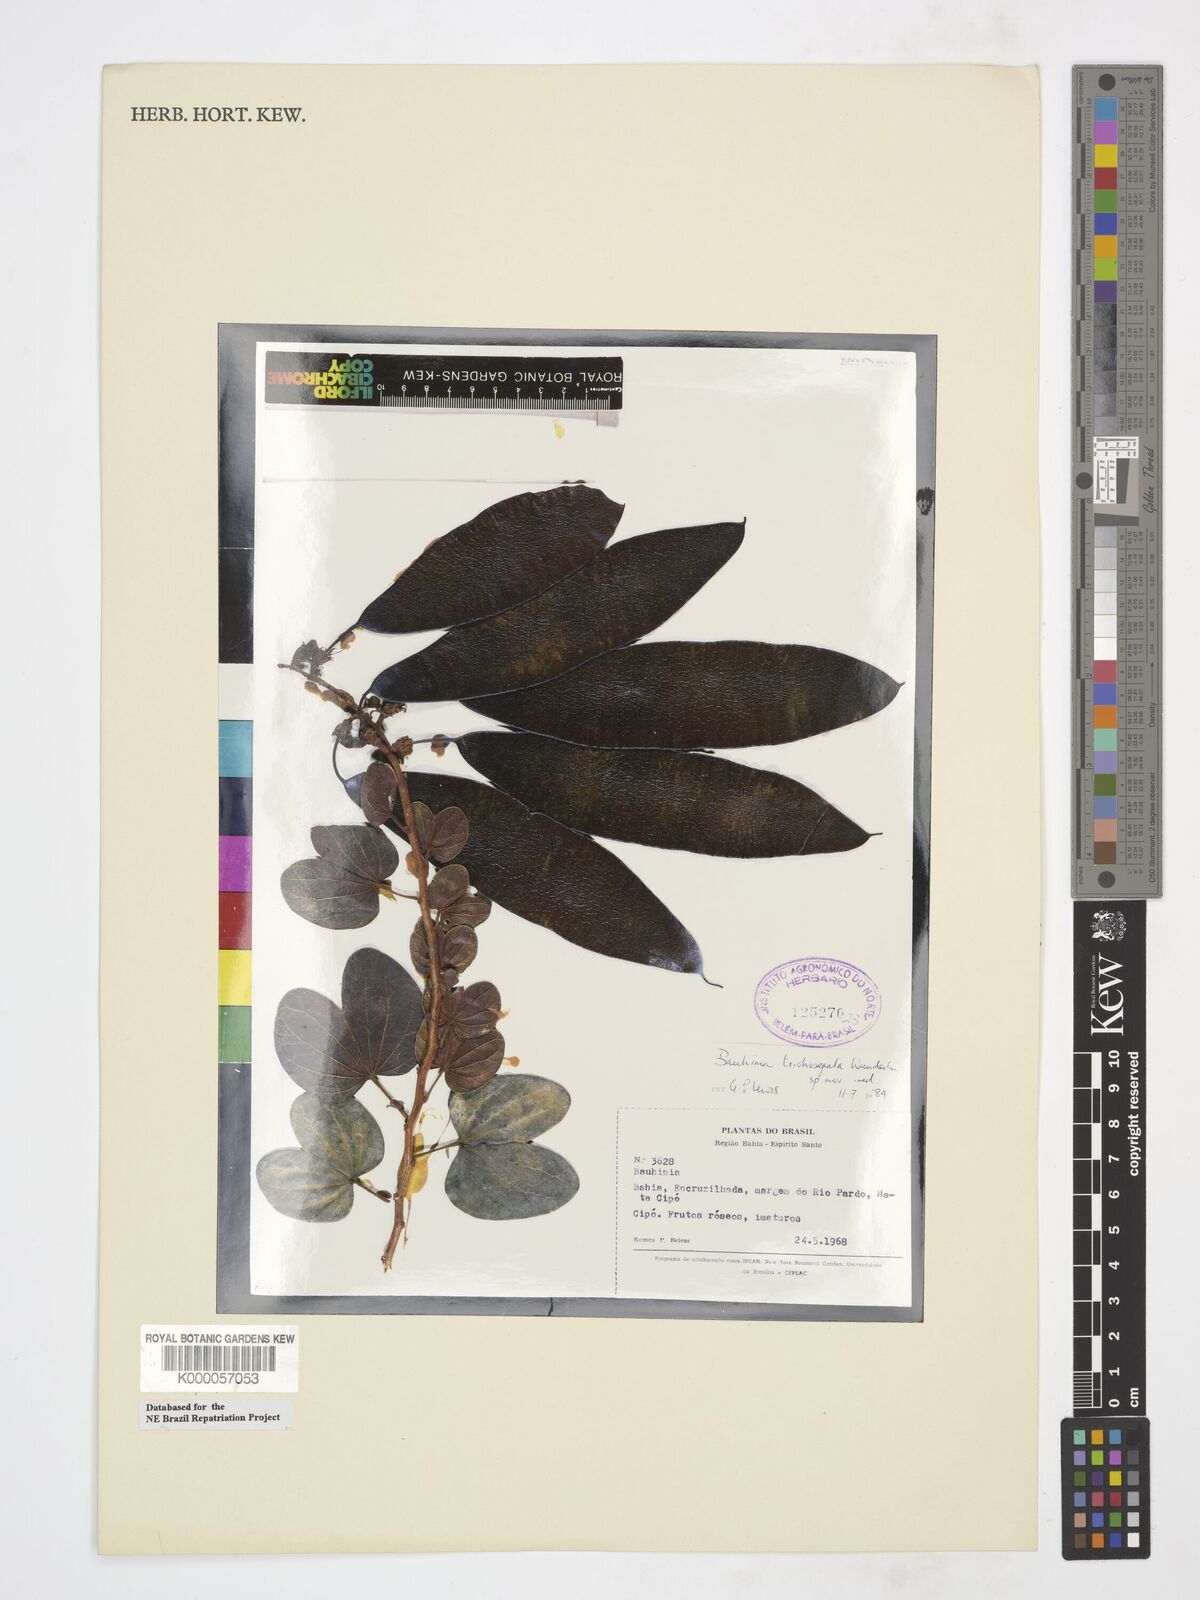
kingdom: Plantae
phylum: Tracheophyta
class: Magnoliopsida
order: Fabales
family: Fabaceae
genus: Schnella
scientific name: Schnella trichosepala
